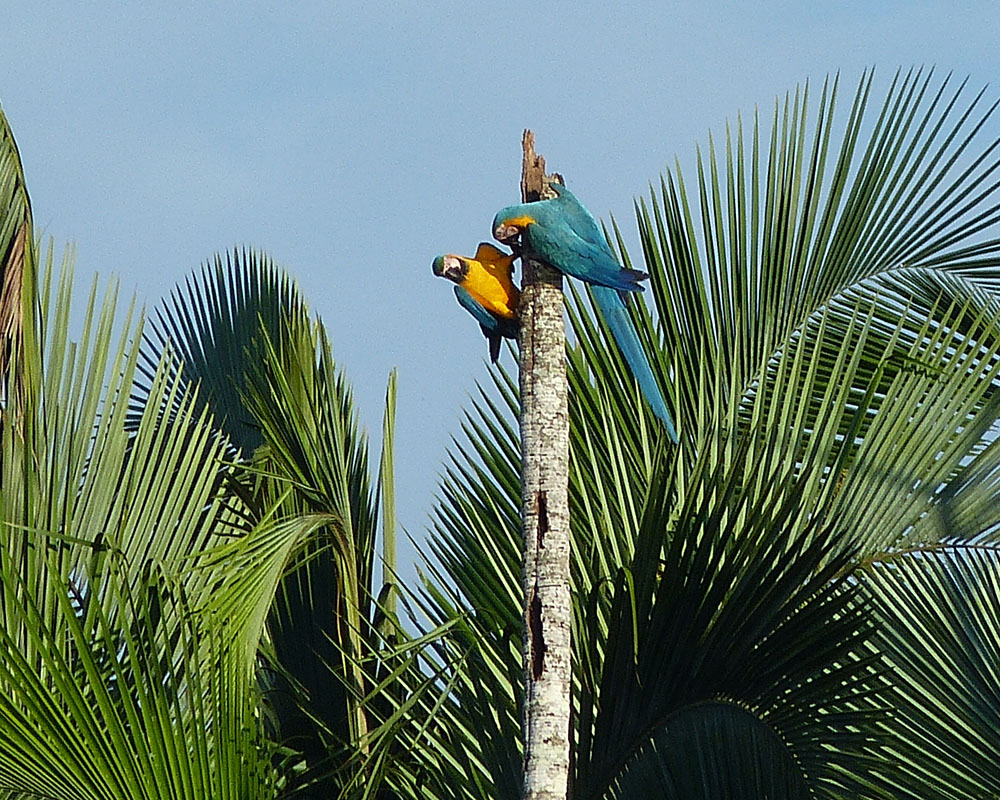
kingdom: Animalia
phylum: Chordata
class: Aves
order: Psittaciformes
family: Psittacidae
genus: Ara
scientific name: Ara ararauna
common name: Blue-and-yellow macaw
